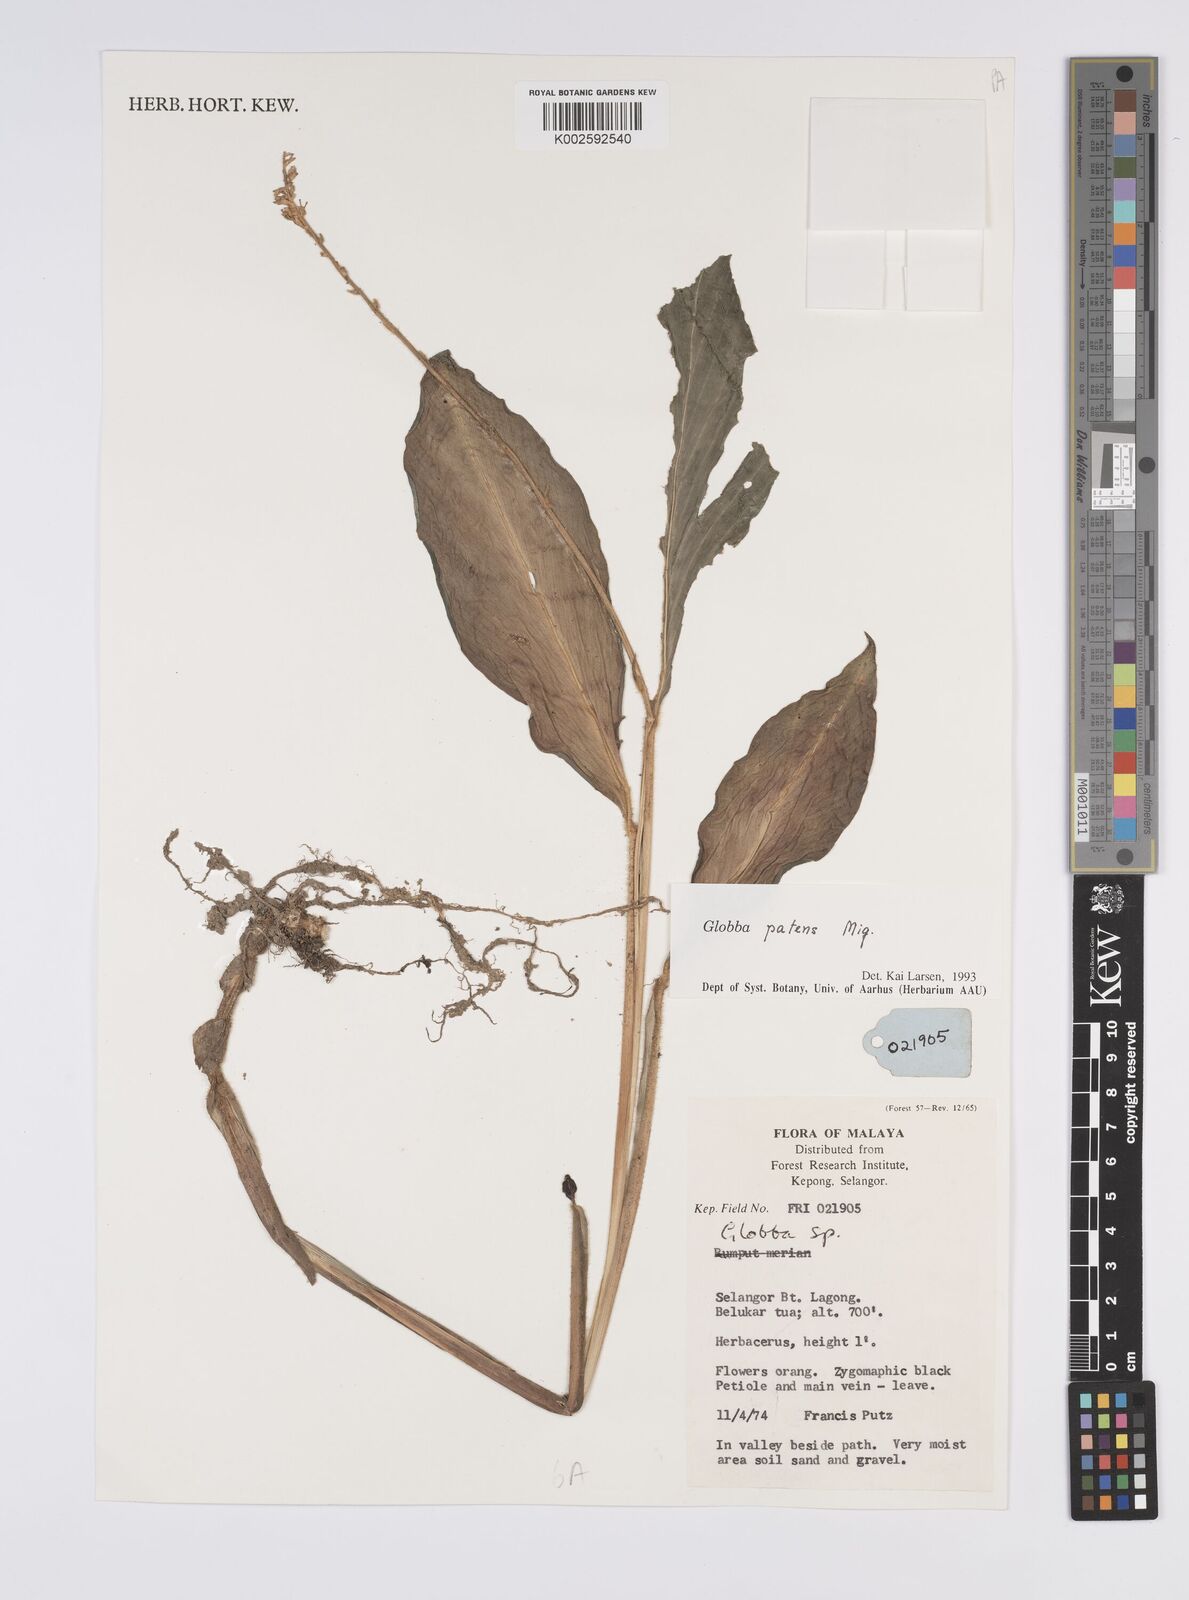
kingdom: Plantae
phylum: Tracheophyta
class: Liliopsida
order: Zingiberales
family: Zingiberaceae
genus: Globba
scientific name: Globba patens
